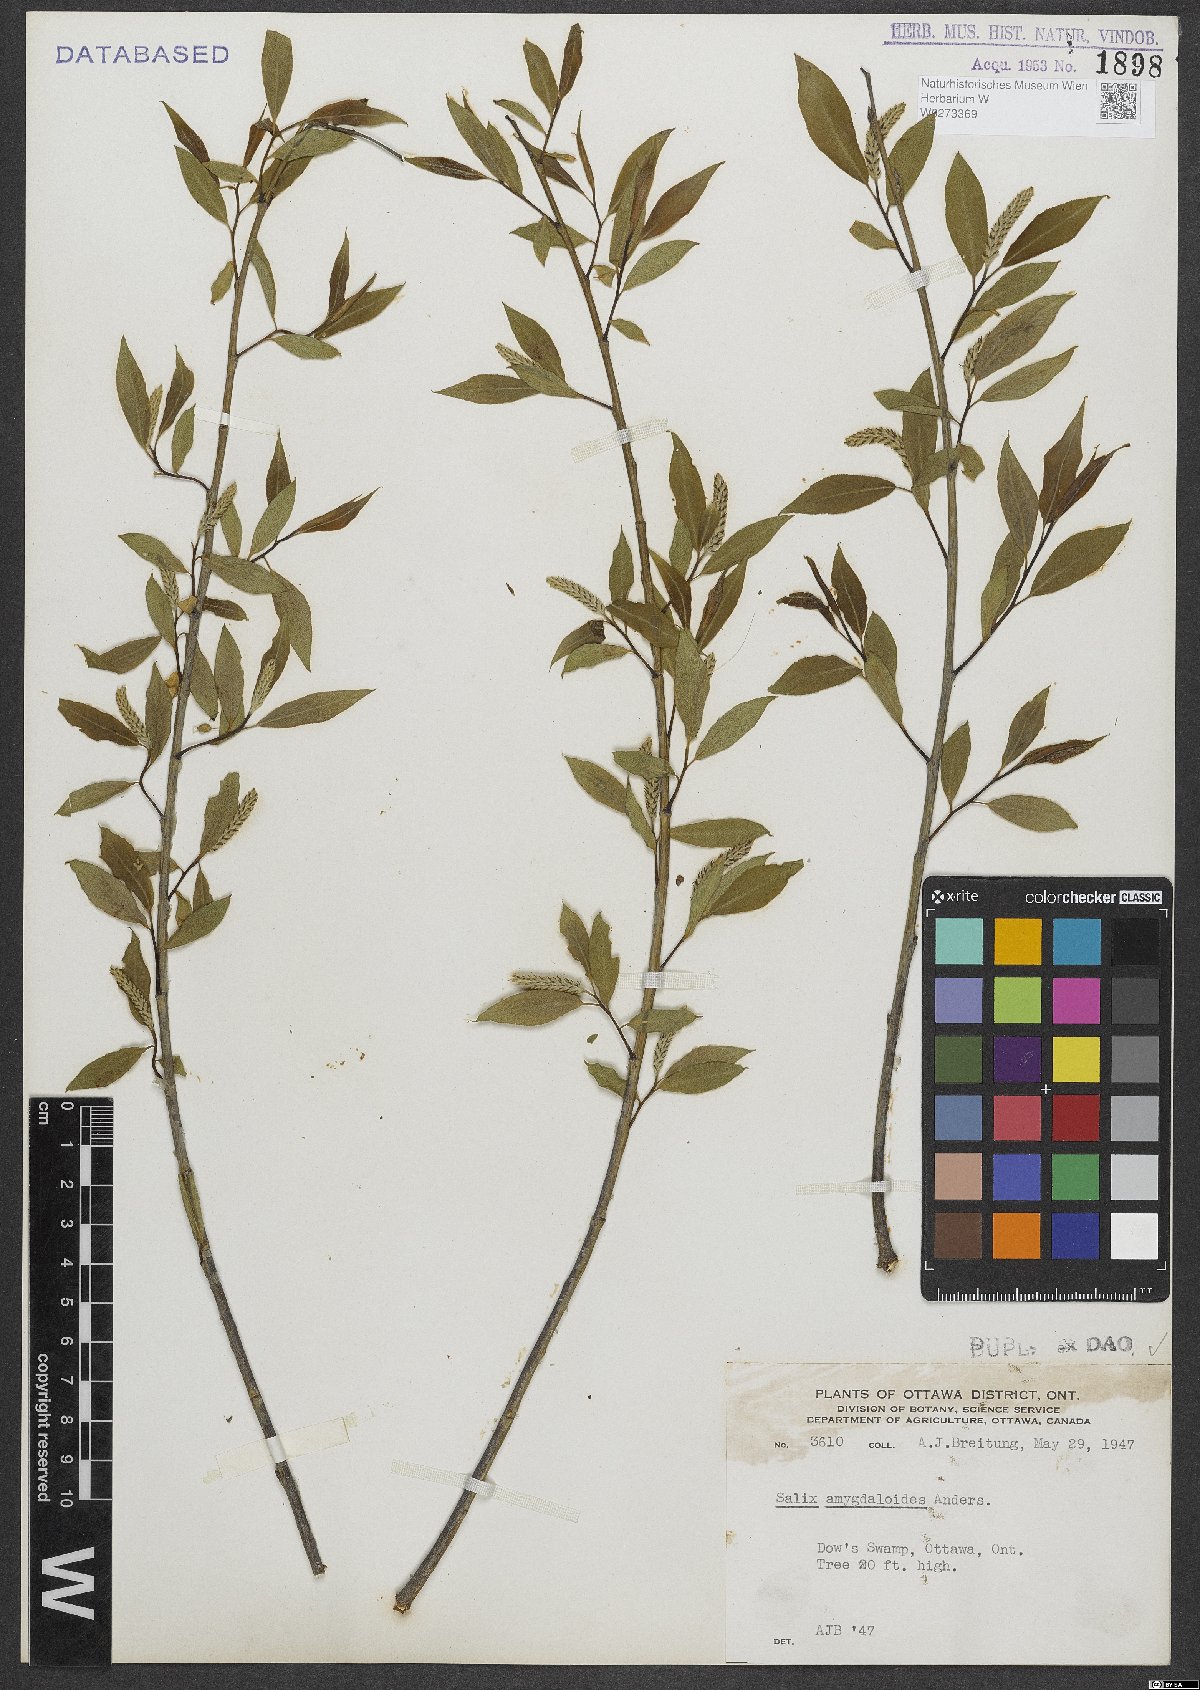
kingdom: Plantae
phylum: Tracheophyta
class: Magnoliopsida
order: Malpighiales
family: Salicaceae
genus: Salix
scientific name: Salix amygdaloides
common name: Peach leaf willow
